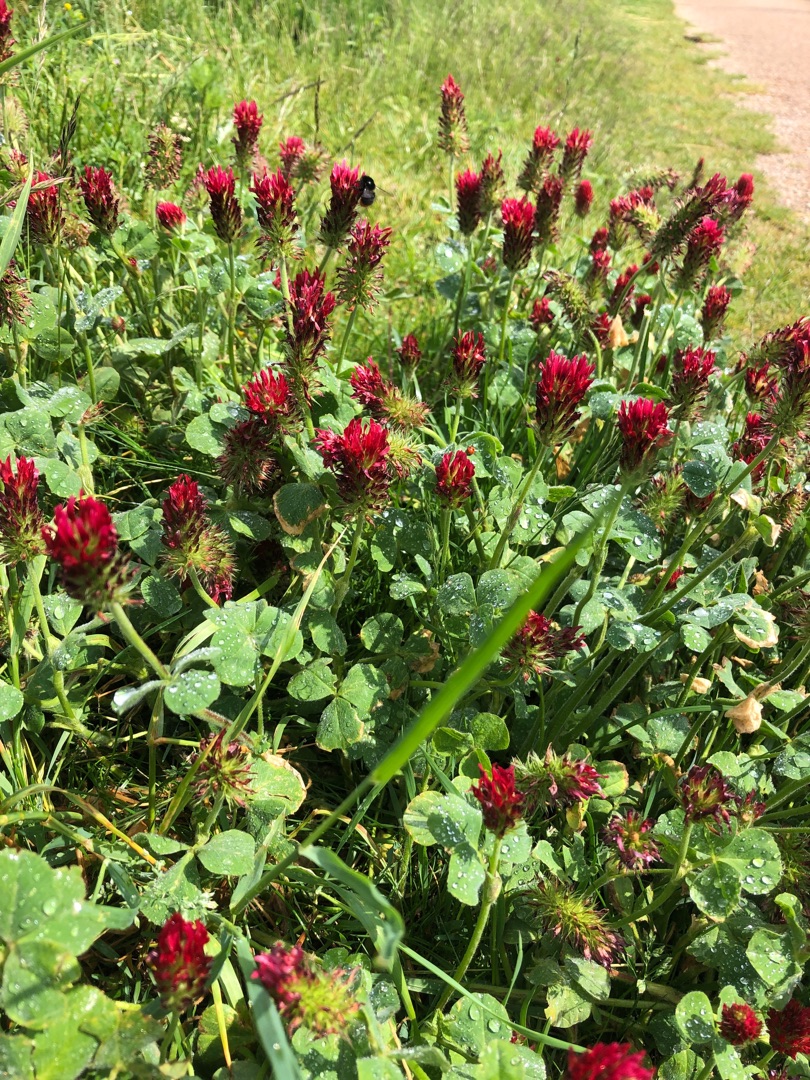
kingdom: Plantae
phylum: Tracheophyta
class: Magnoliopsida
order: Fabales
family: Fabaceae
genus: Trifolium
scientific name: Trifolium incarnatum
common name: Blod-kløver
